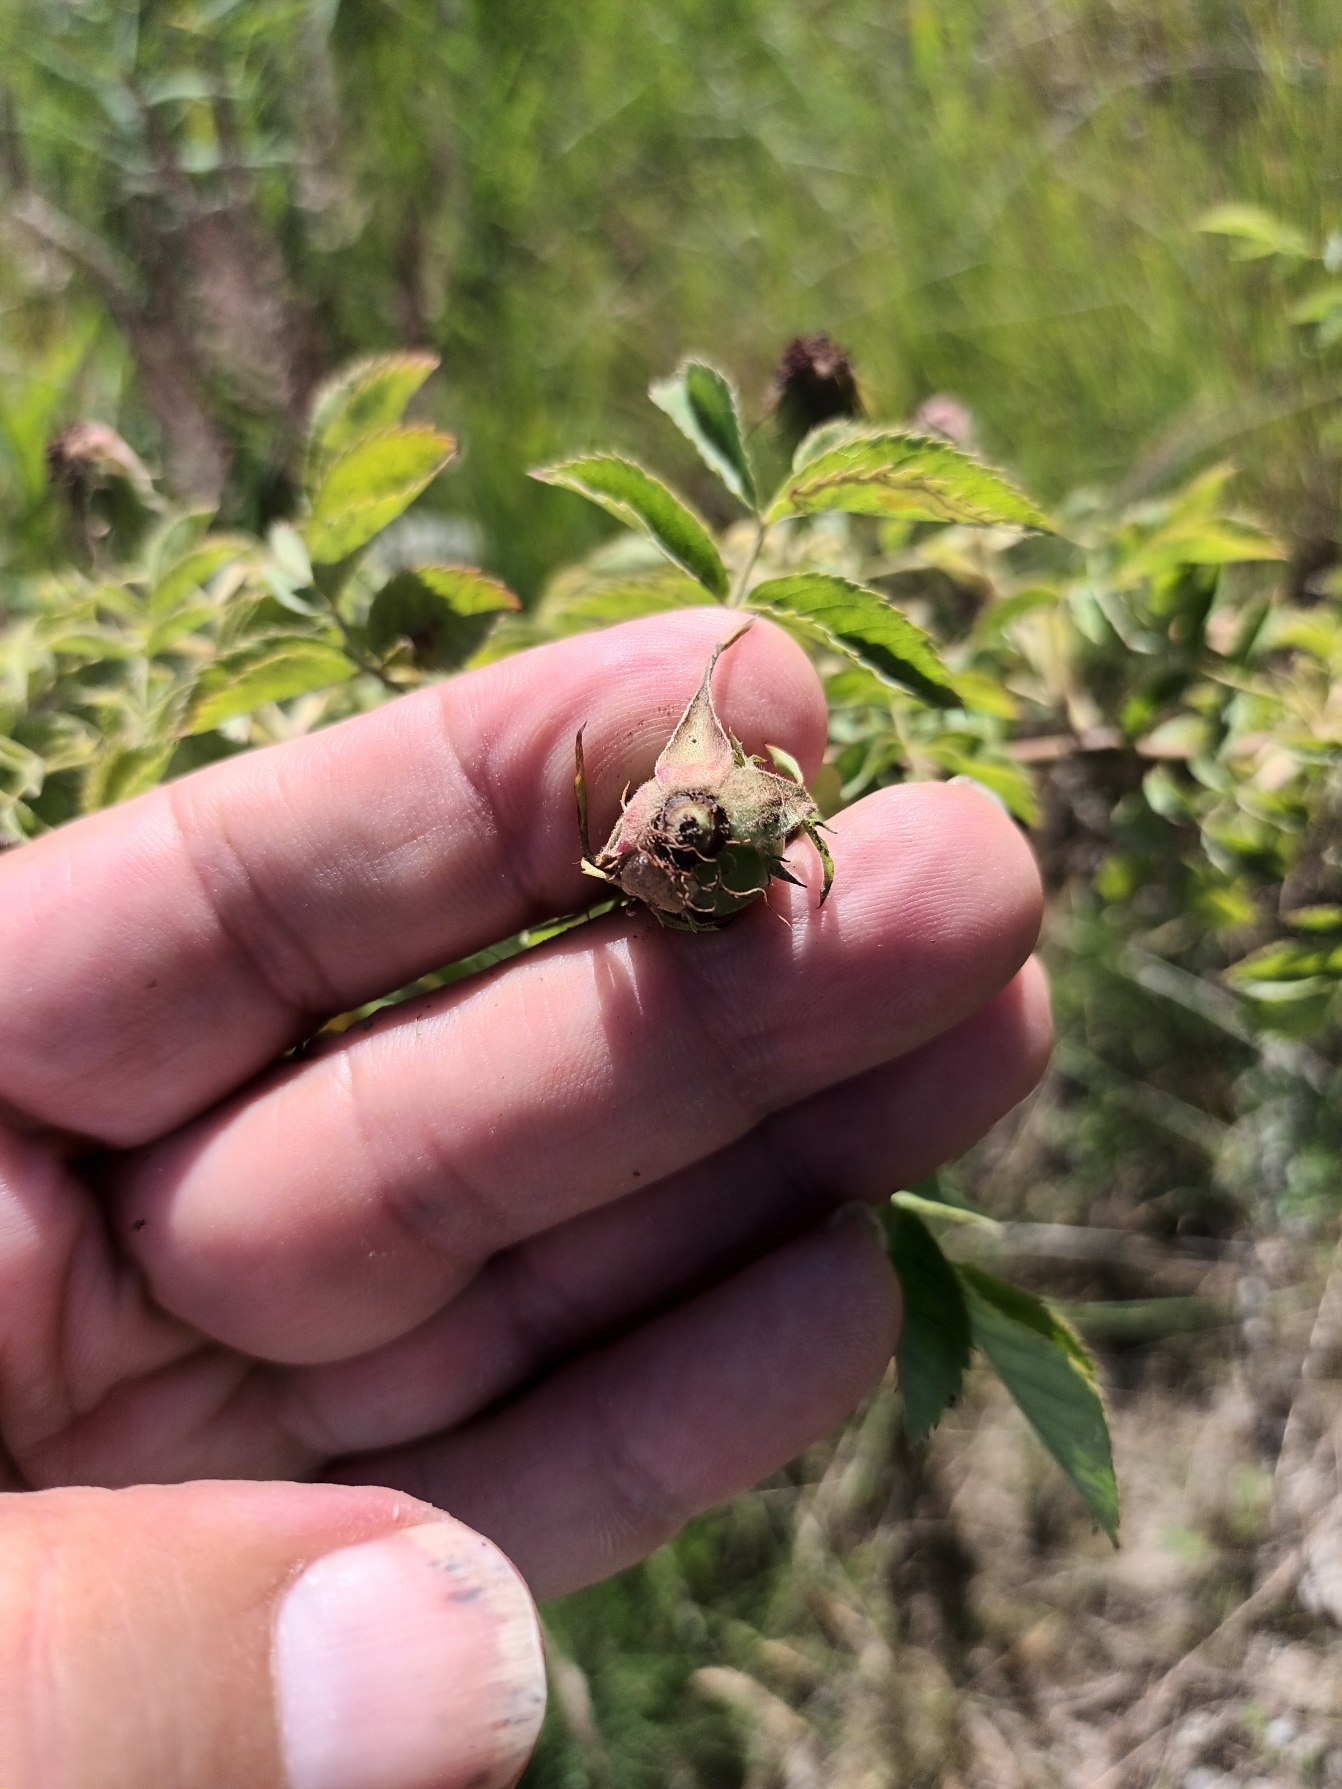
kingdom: Plantae
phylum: Tracheophyta
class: Magnoliopsida
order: Rosales
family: Rosaceae
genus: Rosa
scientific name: Rosa canina
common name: Glat hunde-rose
